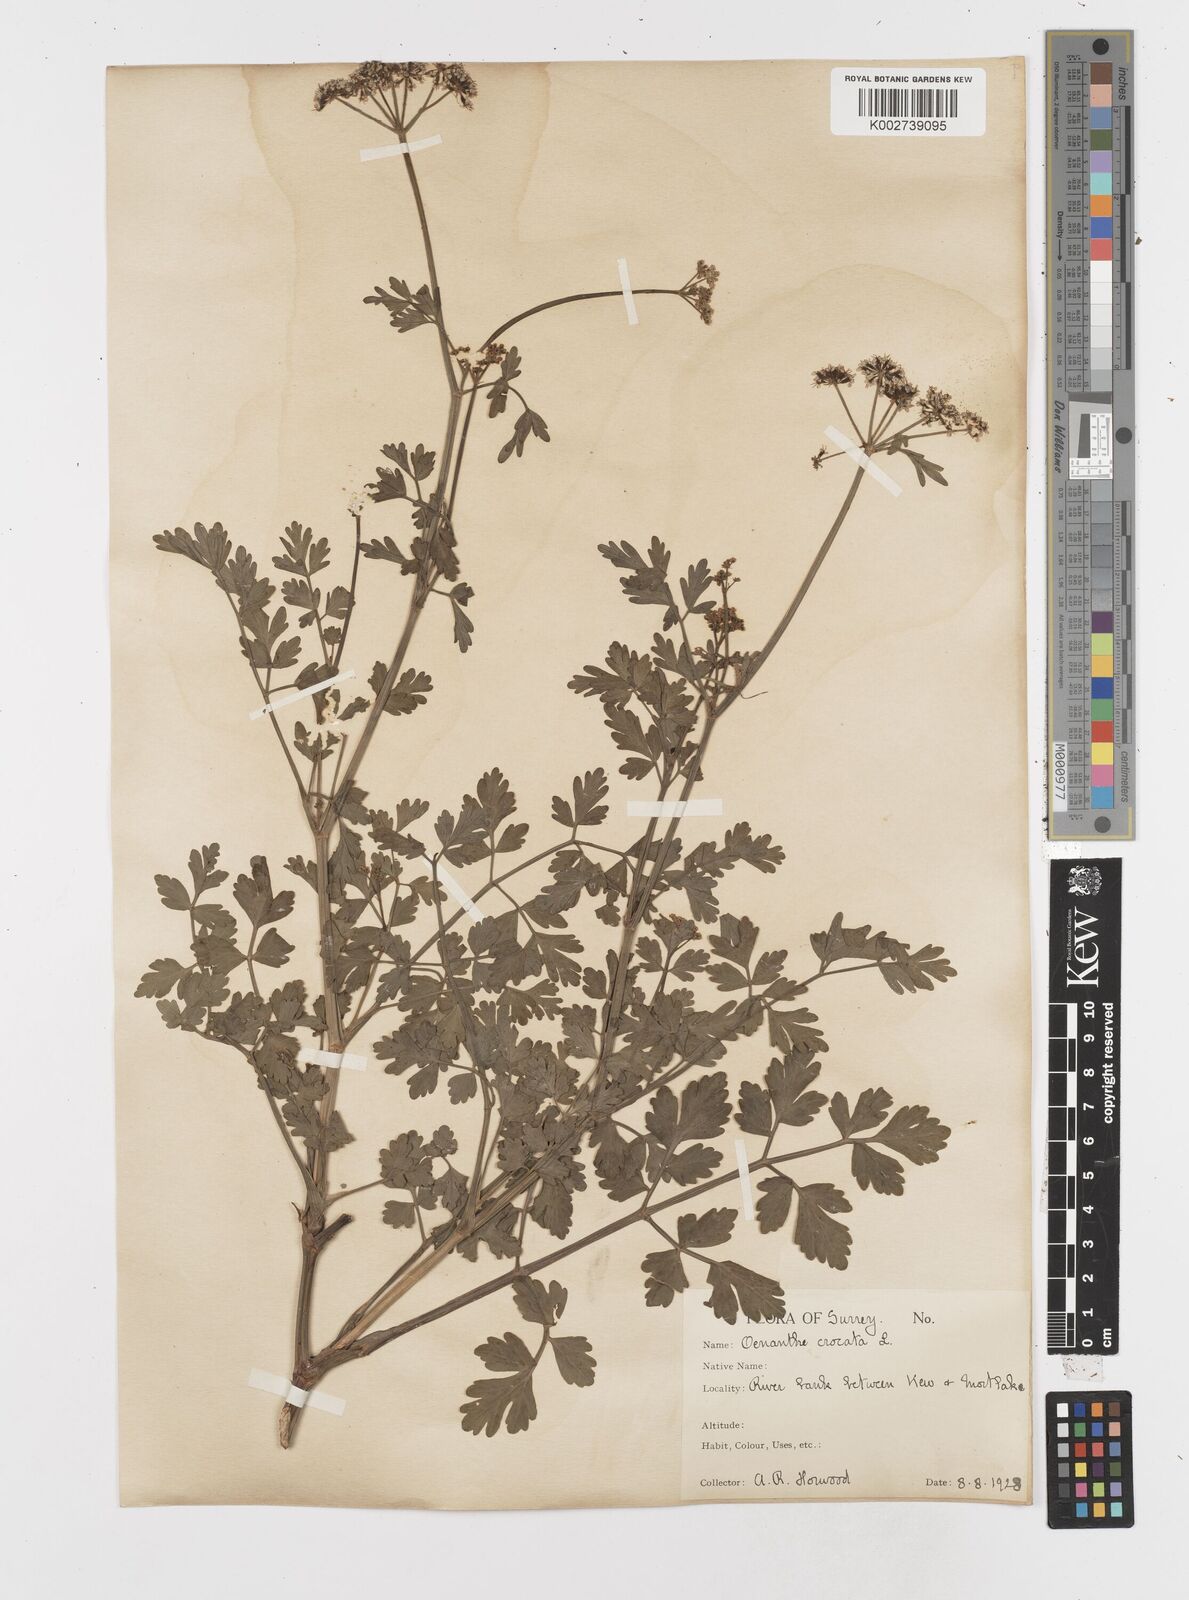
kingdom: Plantae
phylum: Tracheophyta
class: Magnoliopsida
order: Apiales
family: Apiaceae
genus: Oenanthe
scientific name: Oenanthe crocata
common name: Hemlock water-dropwort
